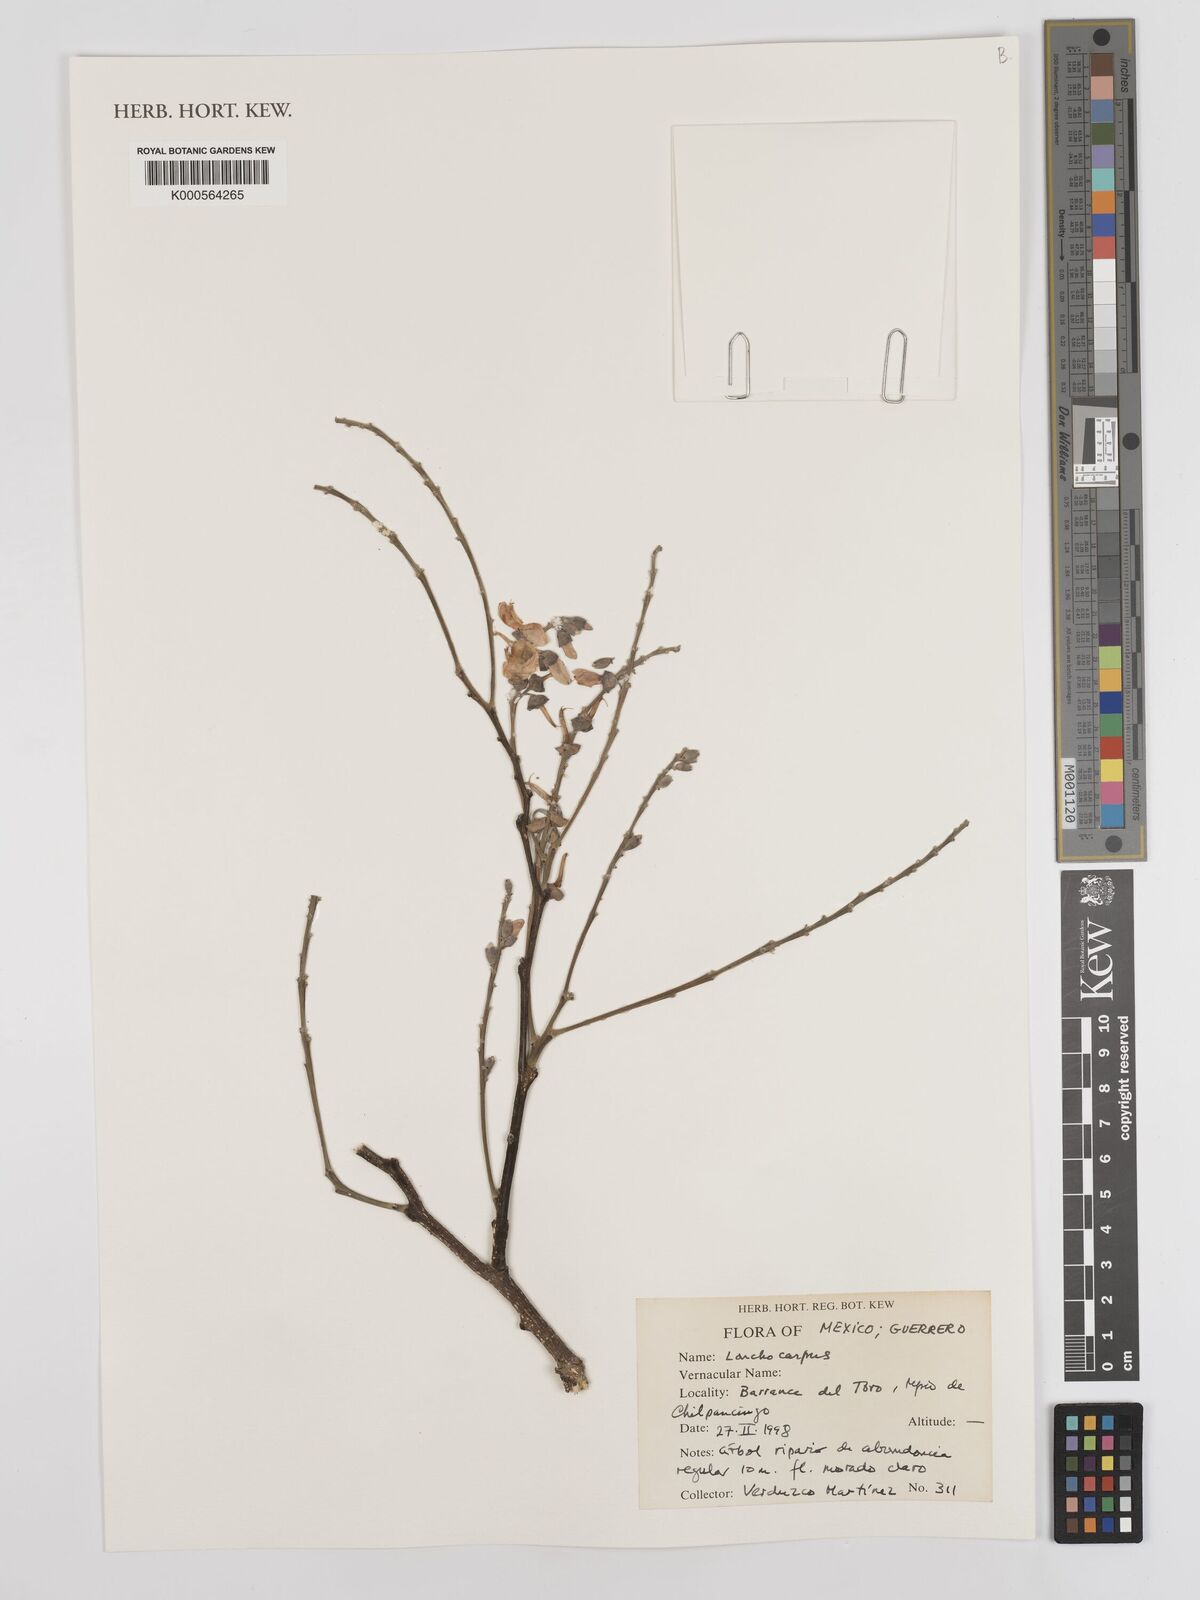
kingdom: Plantae
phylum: Tracheophyta
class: Magnoliopsida
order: Fabales
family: Fabaceae
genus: Lonchocarpus
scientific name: Lonchocarpus
